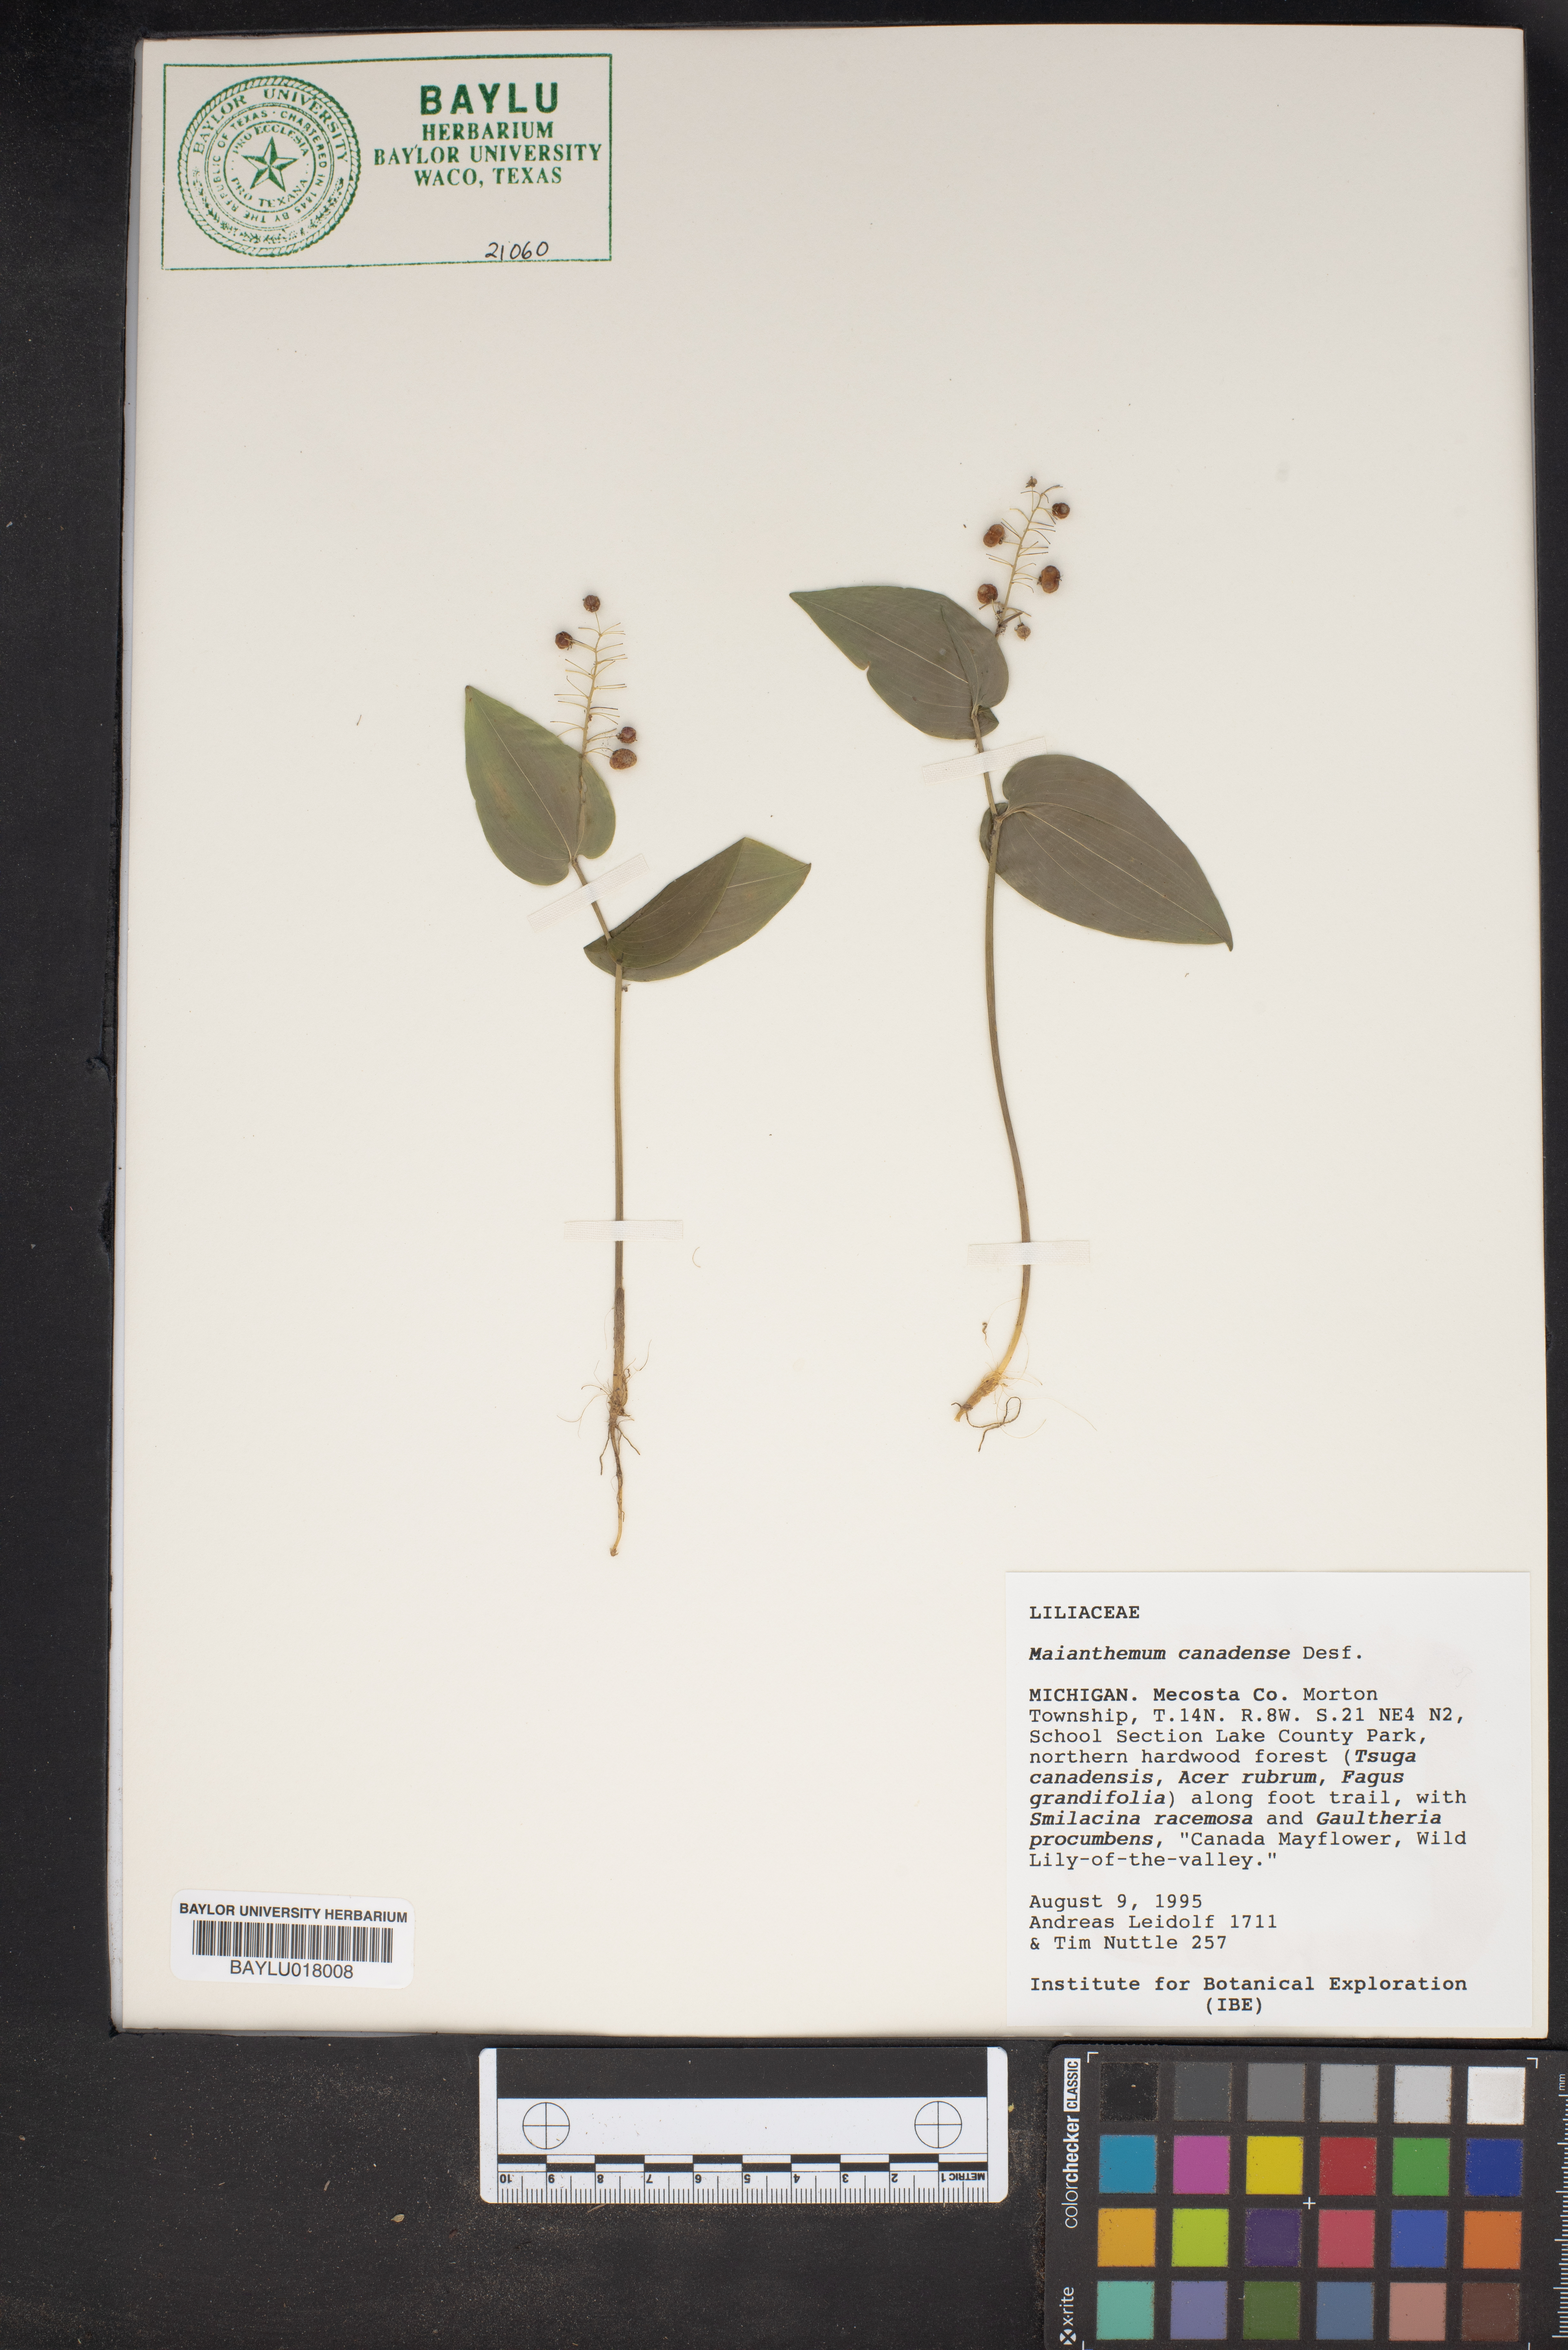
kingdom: Plantae
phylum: Tracheophyta
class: Liliopsida
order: Asparagales
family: Asparagaceae
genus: Maianthemum
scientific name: Maianthemum canadense
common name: False lily-of-the-valley
